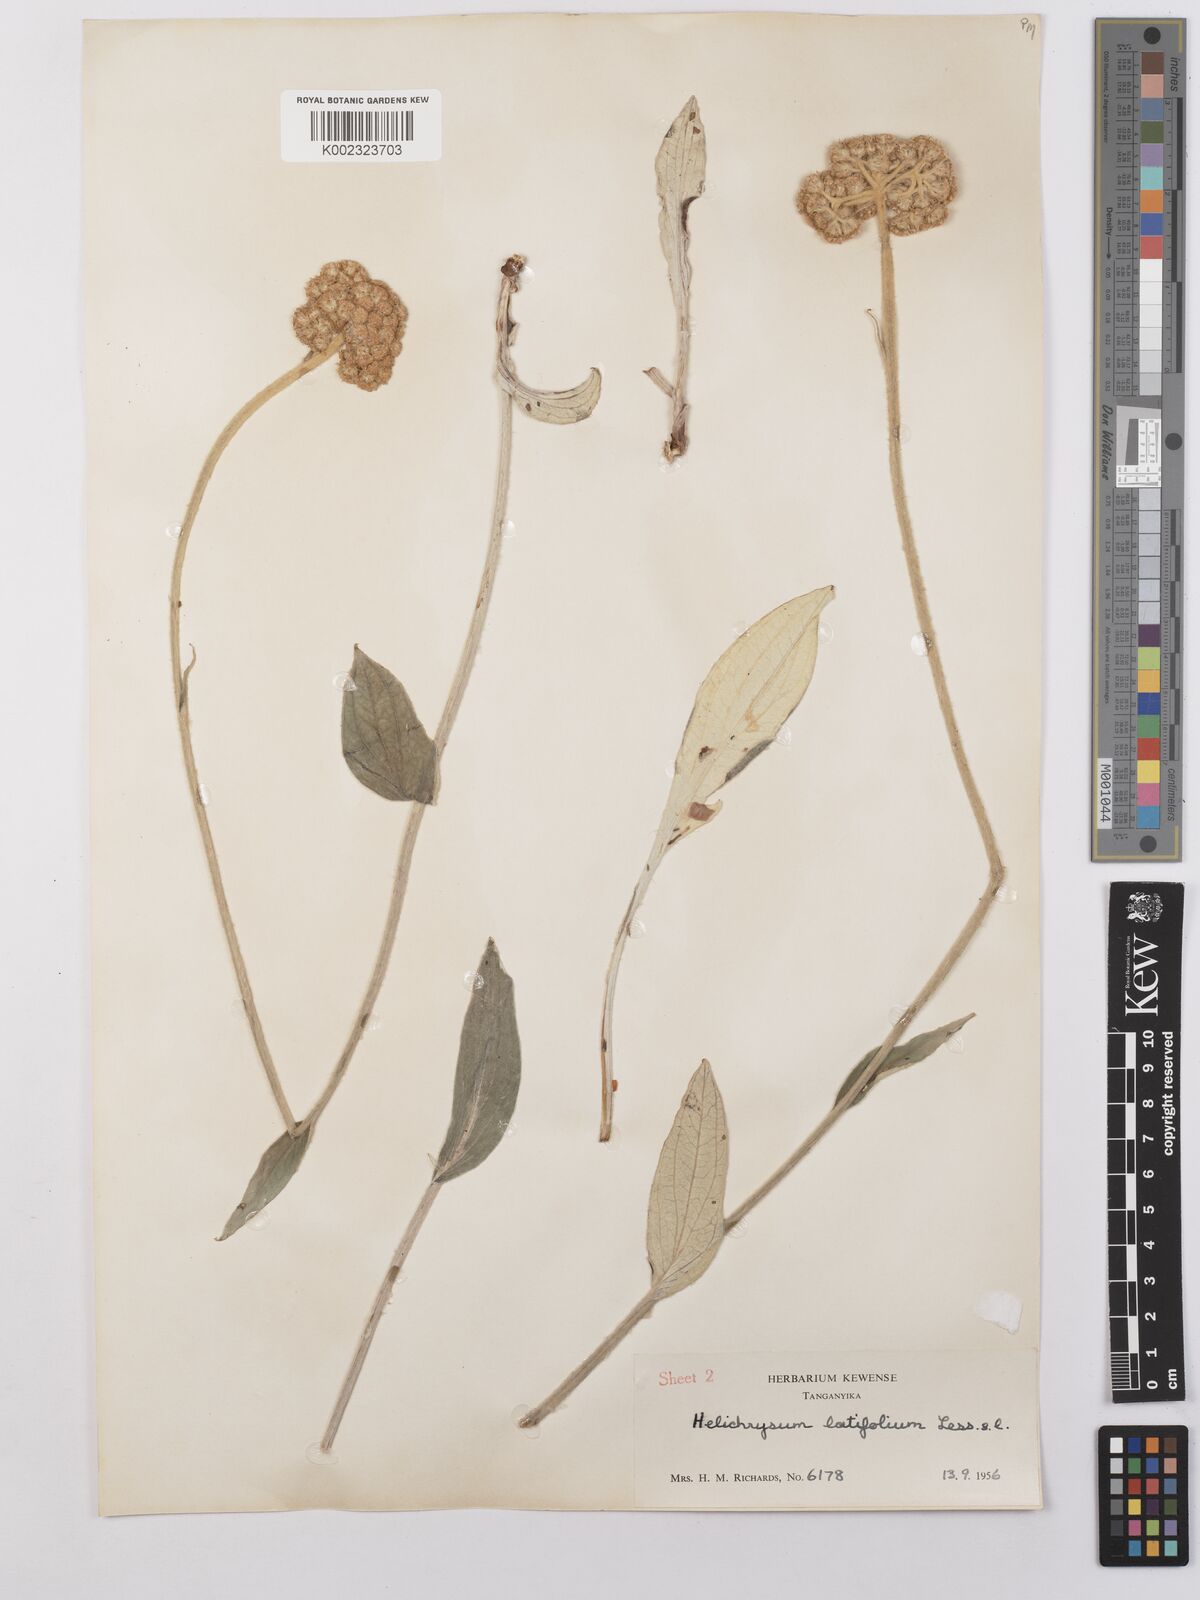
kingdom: Plantae
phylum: Tracheophyta
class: Magnoliopsida
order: Asterales
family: Asteraceae
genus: Helichrysum
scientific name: Helichrysum nudifolium
